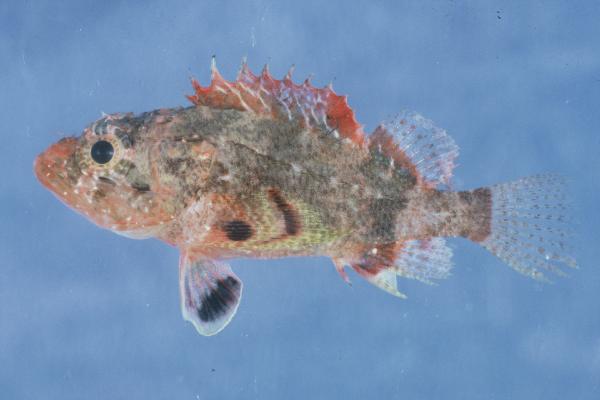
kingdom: Animalia
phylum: Chordata
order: Scorpaeniformes
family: Scorpaenidae
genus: Scorpaenodes
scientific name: Scorpaenodes hirsutus
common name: Hairy scorpionfish
